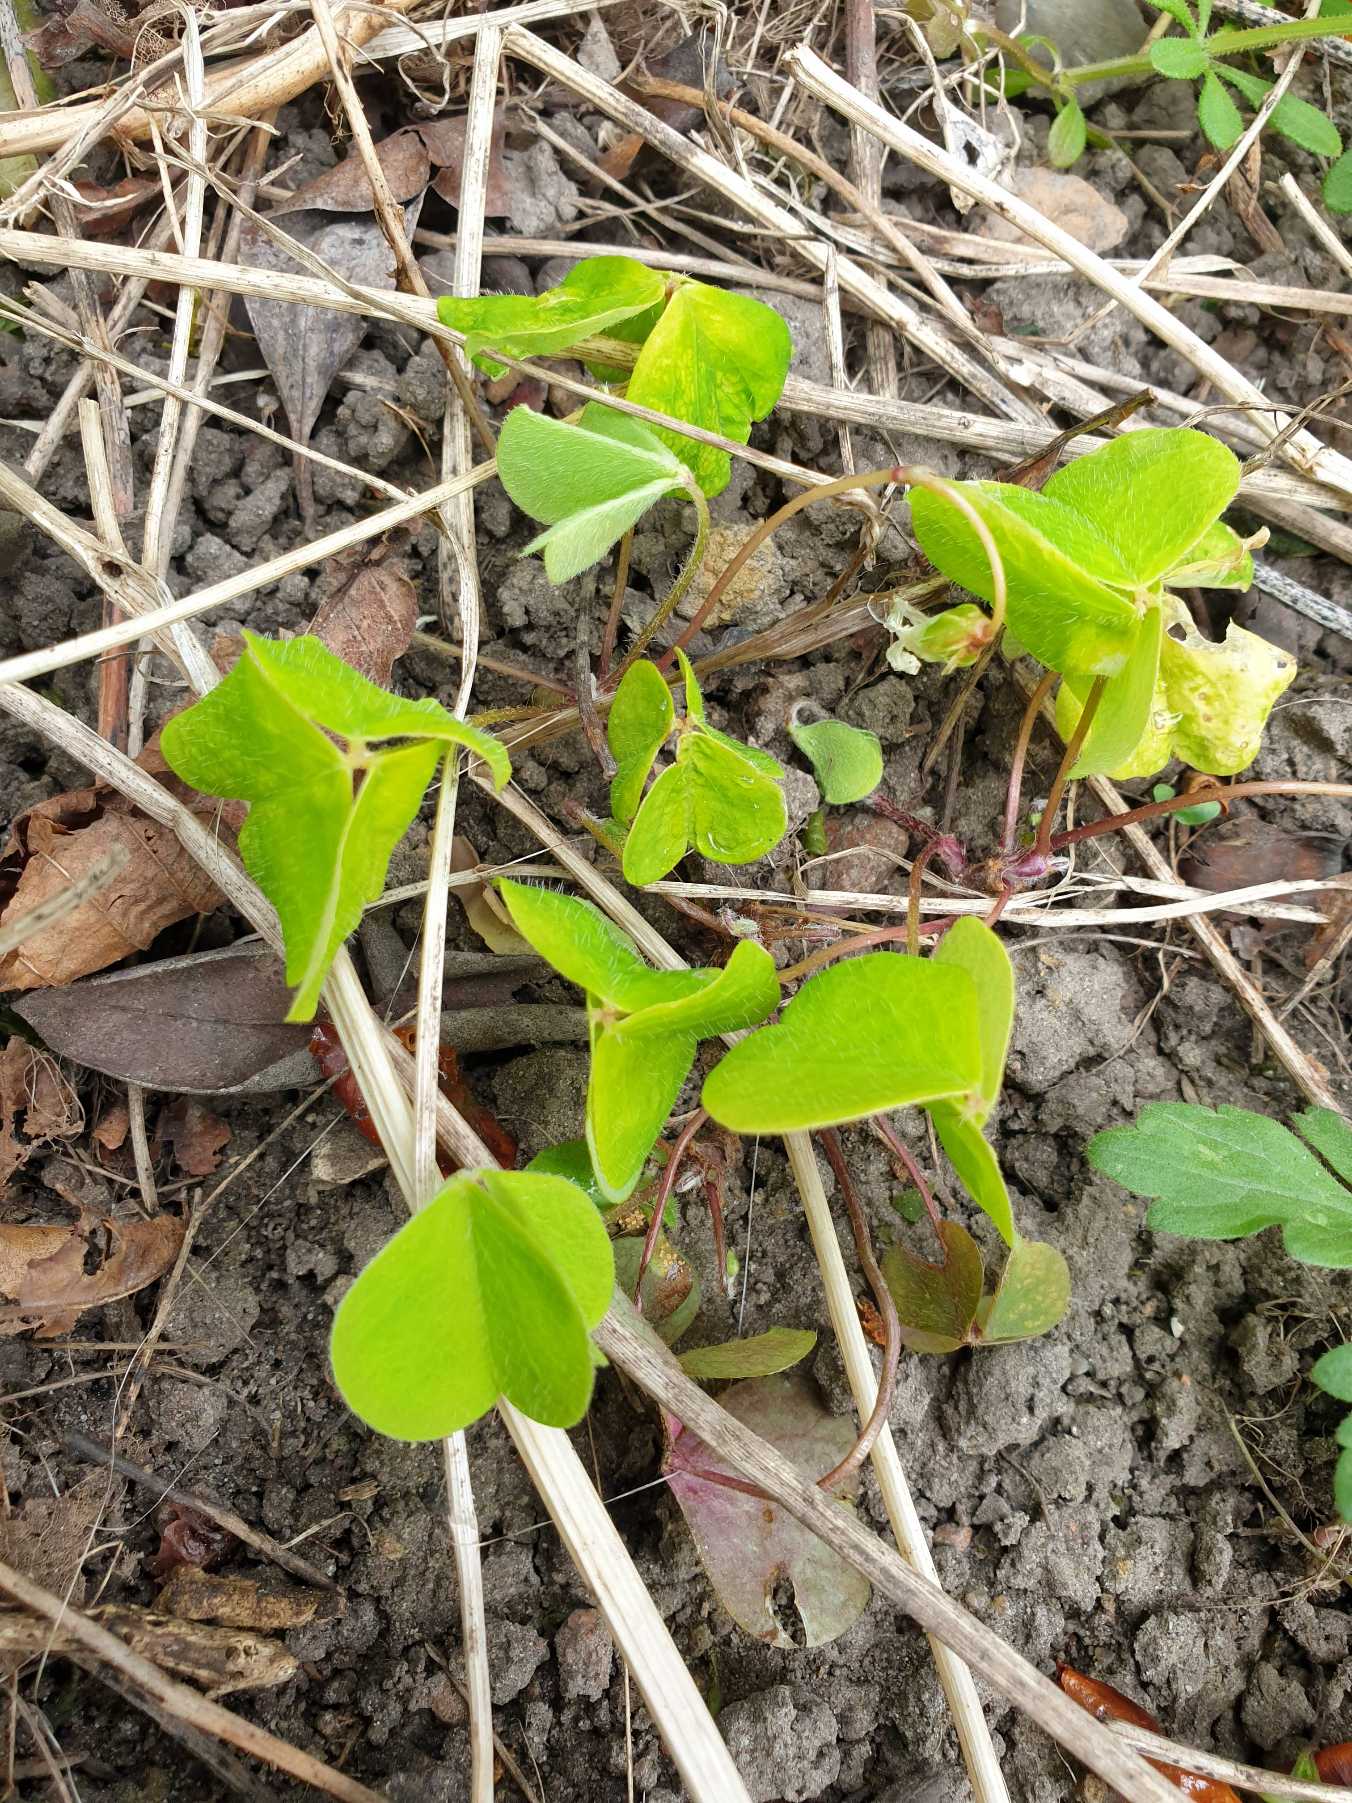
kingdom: Plantae
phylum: Tracheophyta
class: Magnoliopsida
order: Oxalidales
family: Oxalidaceae
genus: Oxalis
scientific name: Oxalis acetosella
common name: Skovsyre
